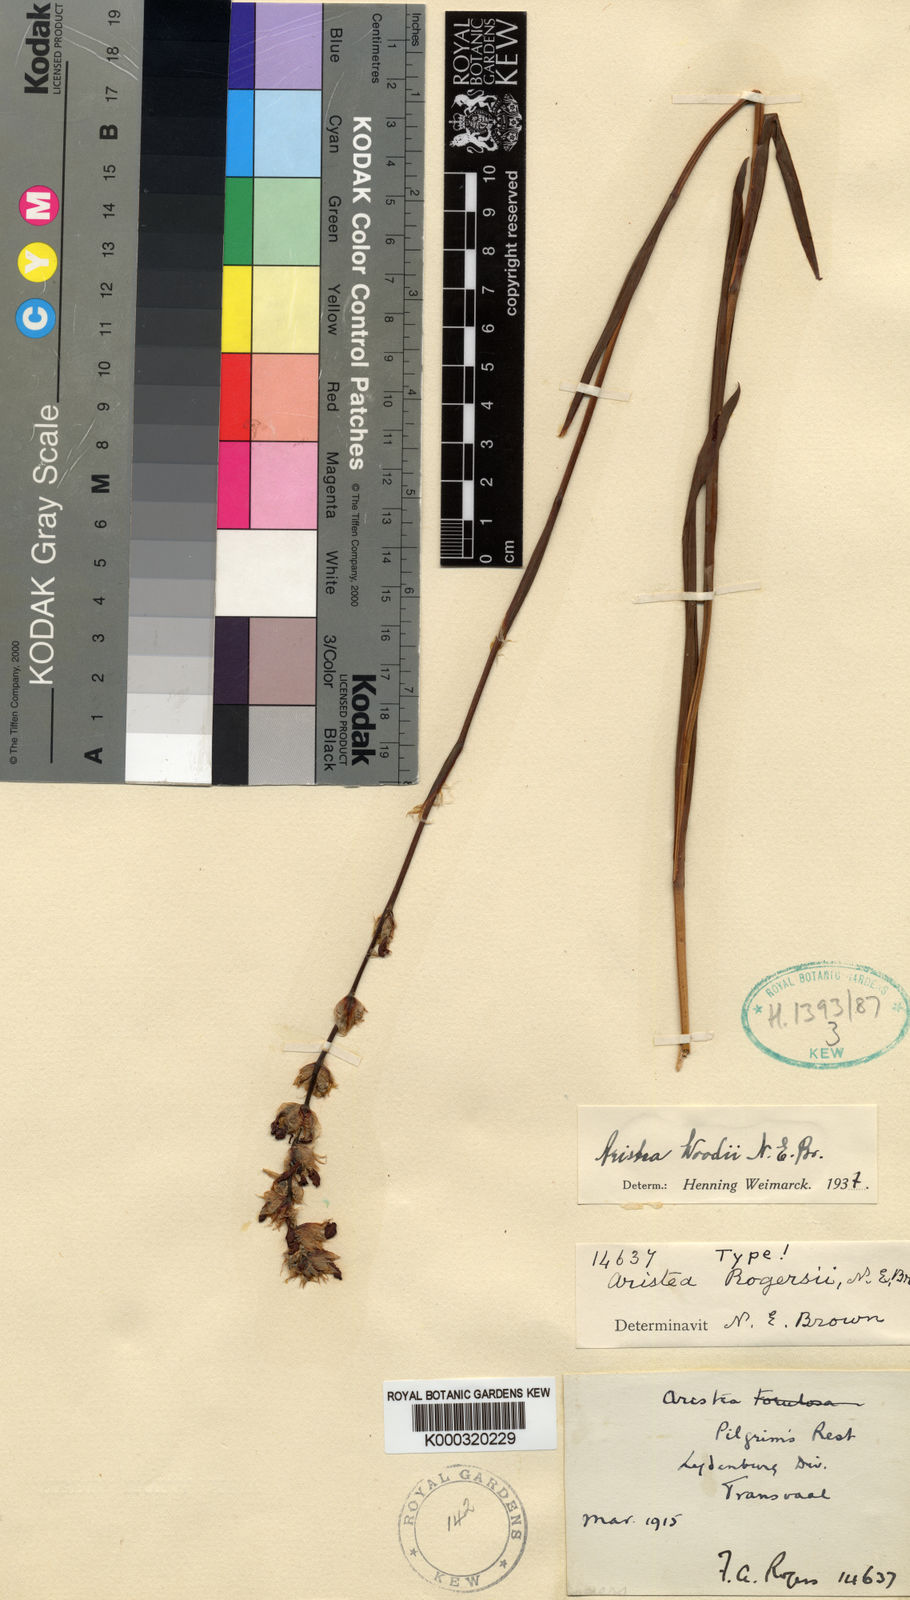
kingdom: Plantae
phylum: Tracheophyta
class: Liliopsida
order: Asparagales
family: Iridaceae
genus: Aristea
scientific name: Aristea torulosa
